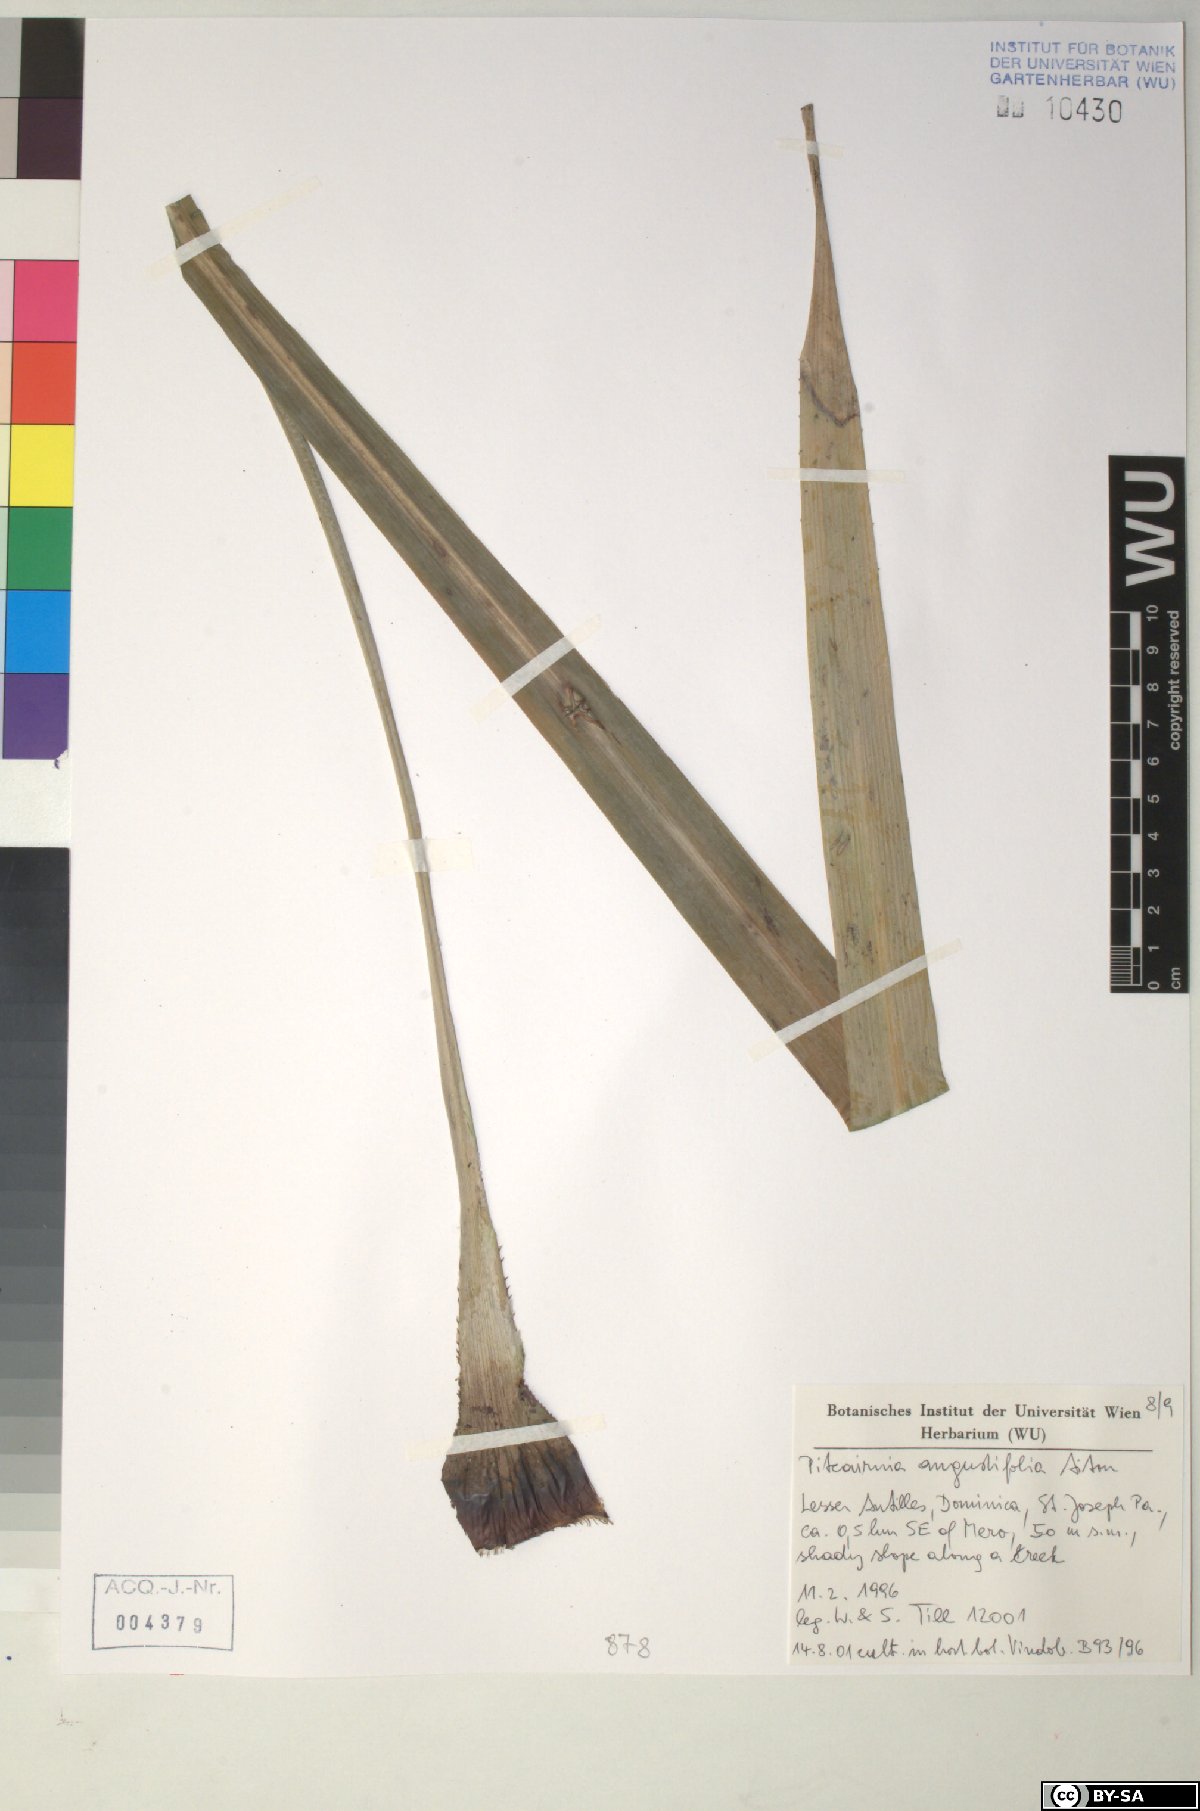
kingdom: Plantae
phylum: Tracheophyta
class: Liliopsida
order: Poales
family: Bromeliaceae
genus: Pitcairnia
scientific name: Pitcairnia angustifolia
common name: Clapper
